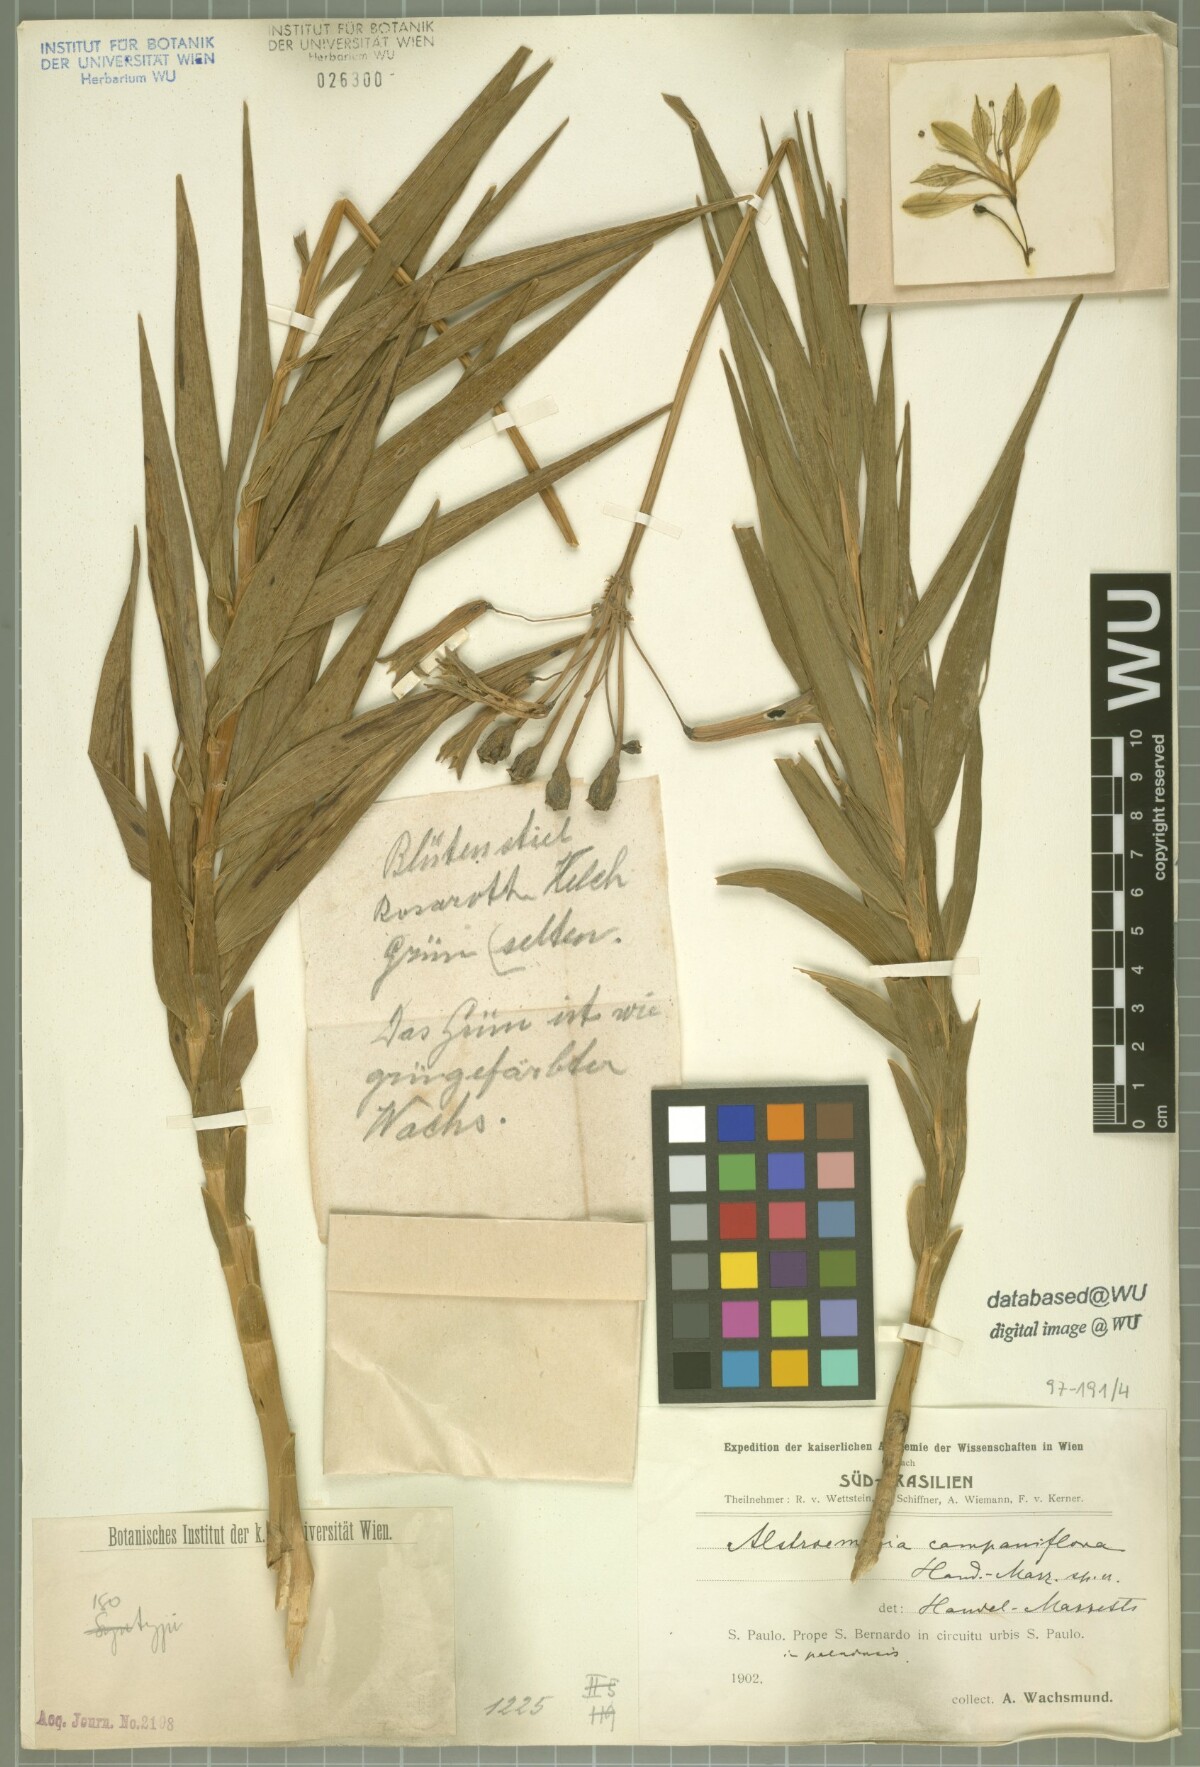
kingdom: Plantae
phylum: Tracheophyta
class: Liliopsida
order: Liliales
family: Alstroemeriaceae
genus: Alstroemeria
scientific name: Alstroemeria isabelleana
